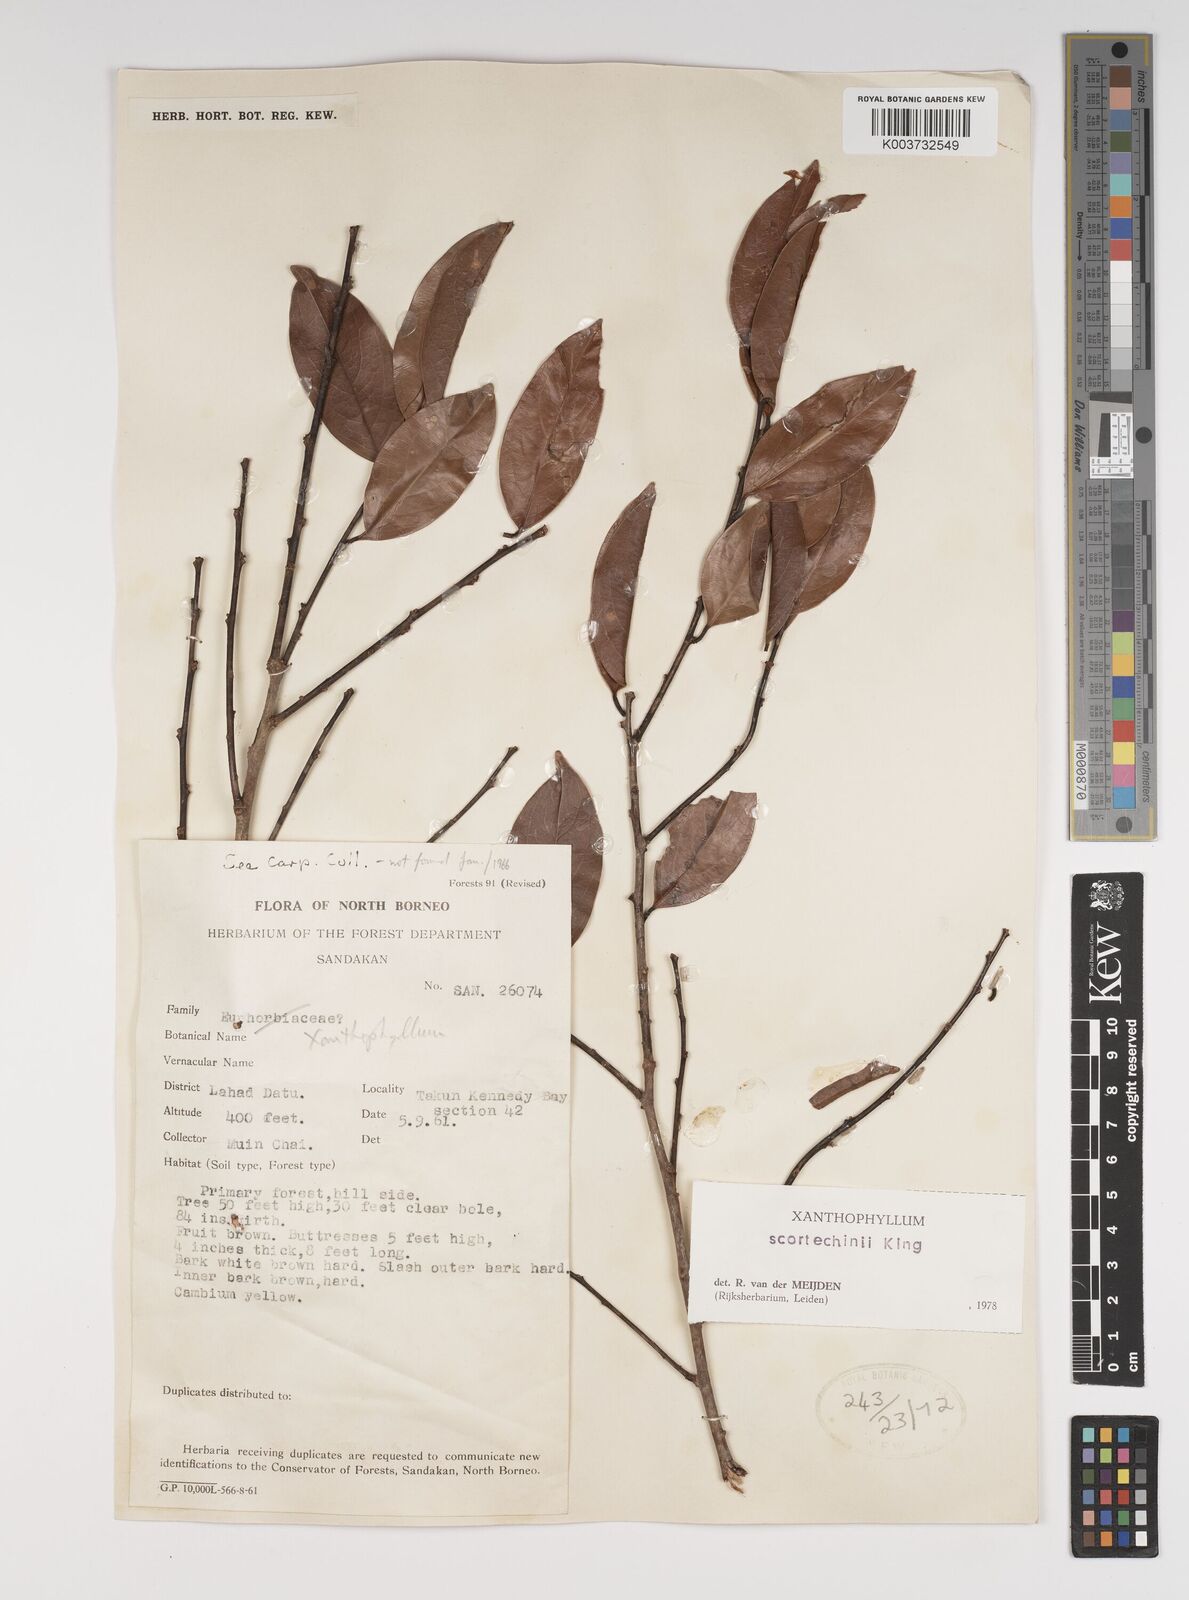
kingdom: Plantae
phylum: Tracheophyta
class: Magnoliopsida
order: Fabales
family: Polygalaceae
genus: Xanthophyllum
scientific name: Xanthophyllum obscurum
